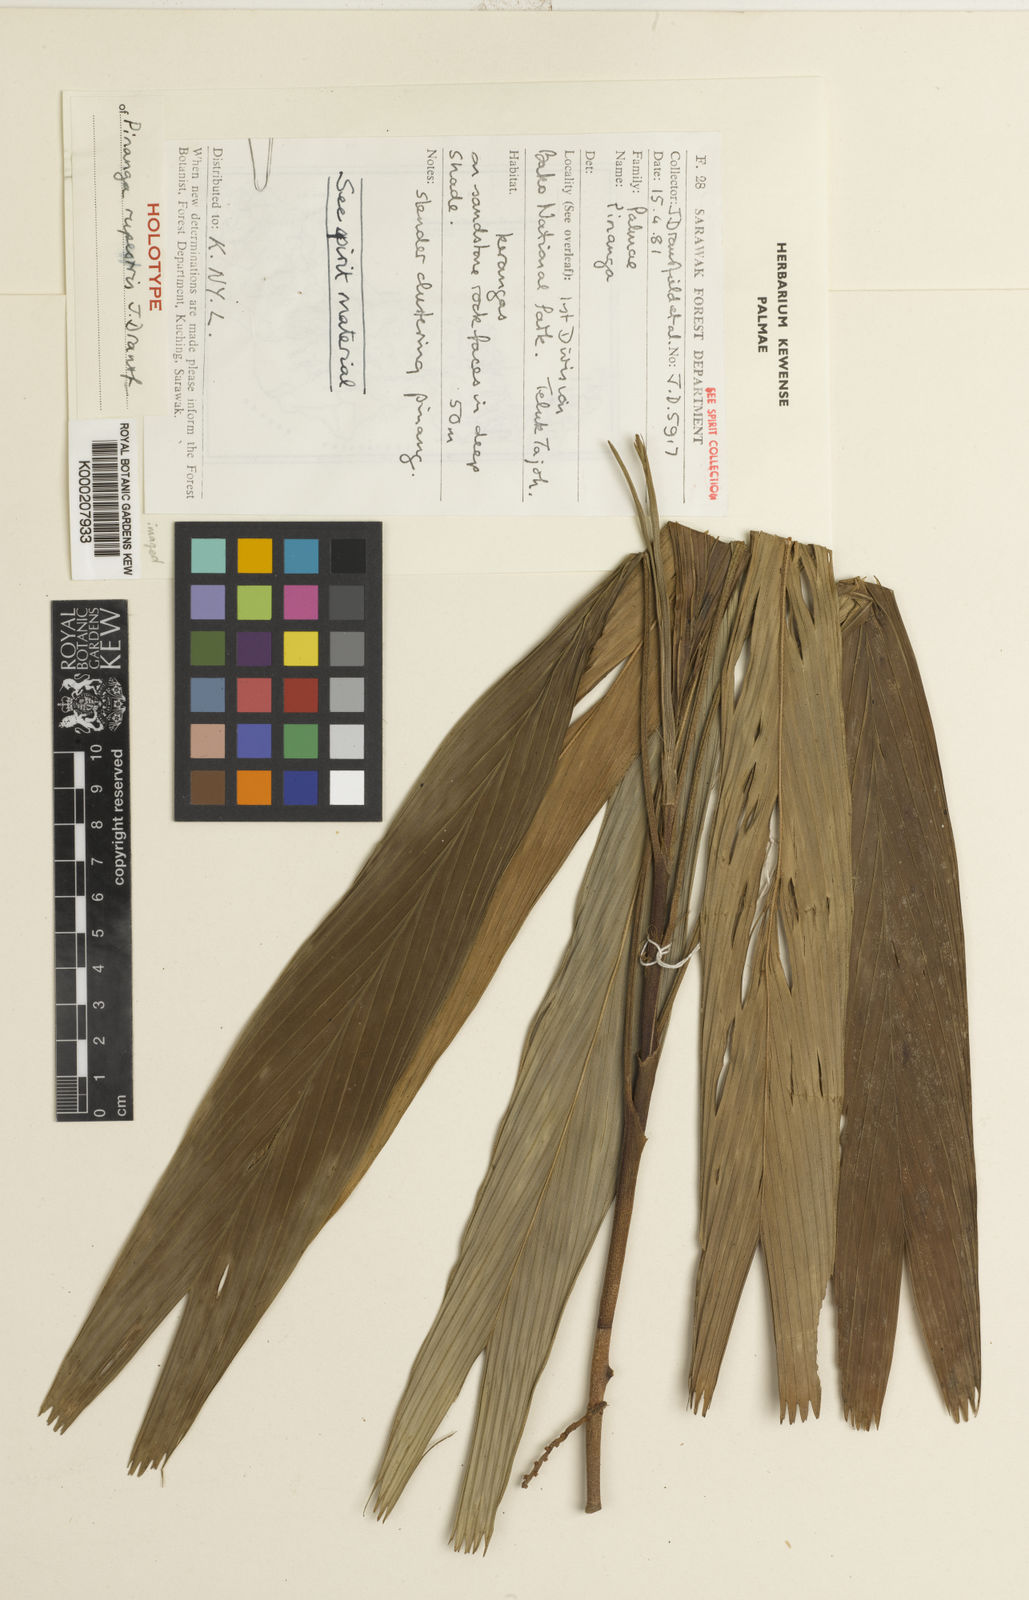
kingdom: Plantae
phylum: Tracheophyta
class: Liliopsida
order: Arecales
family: Arecaceae
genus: Pinanga
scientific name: Pinanga rupestris
